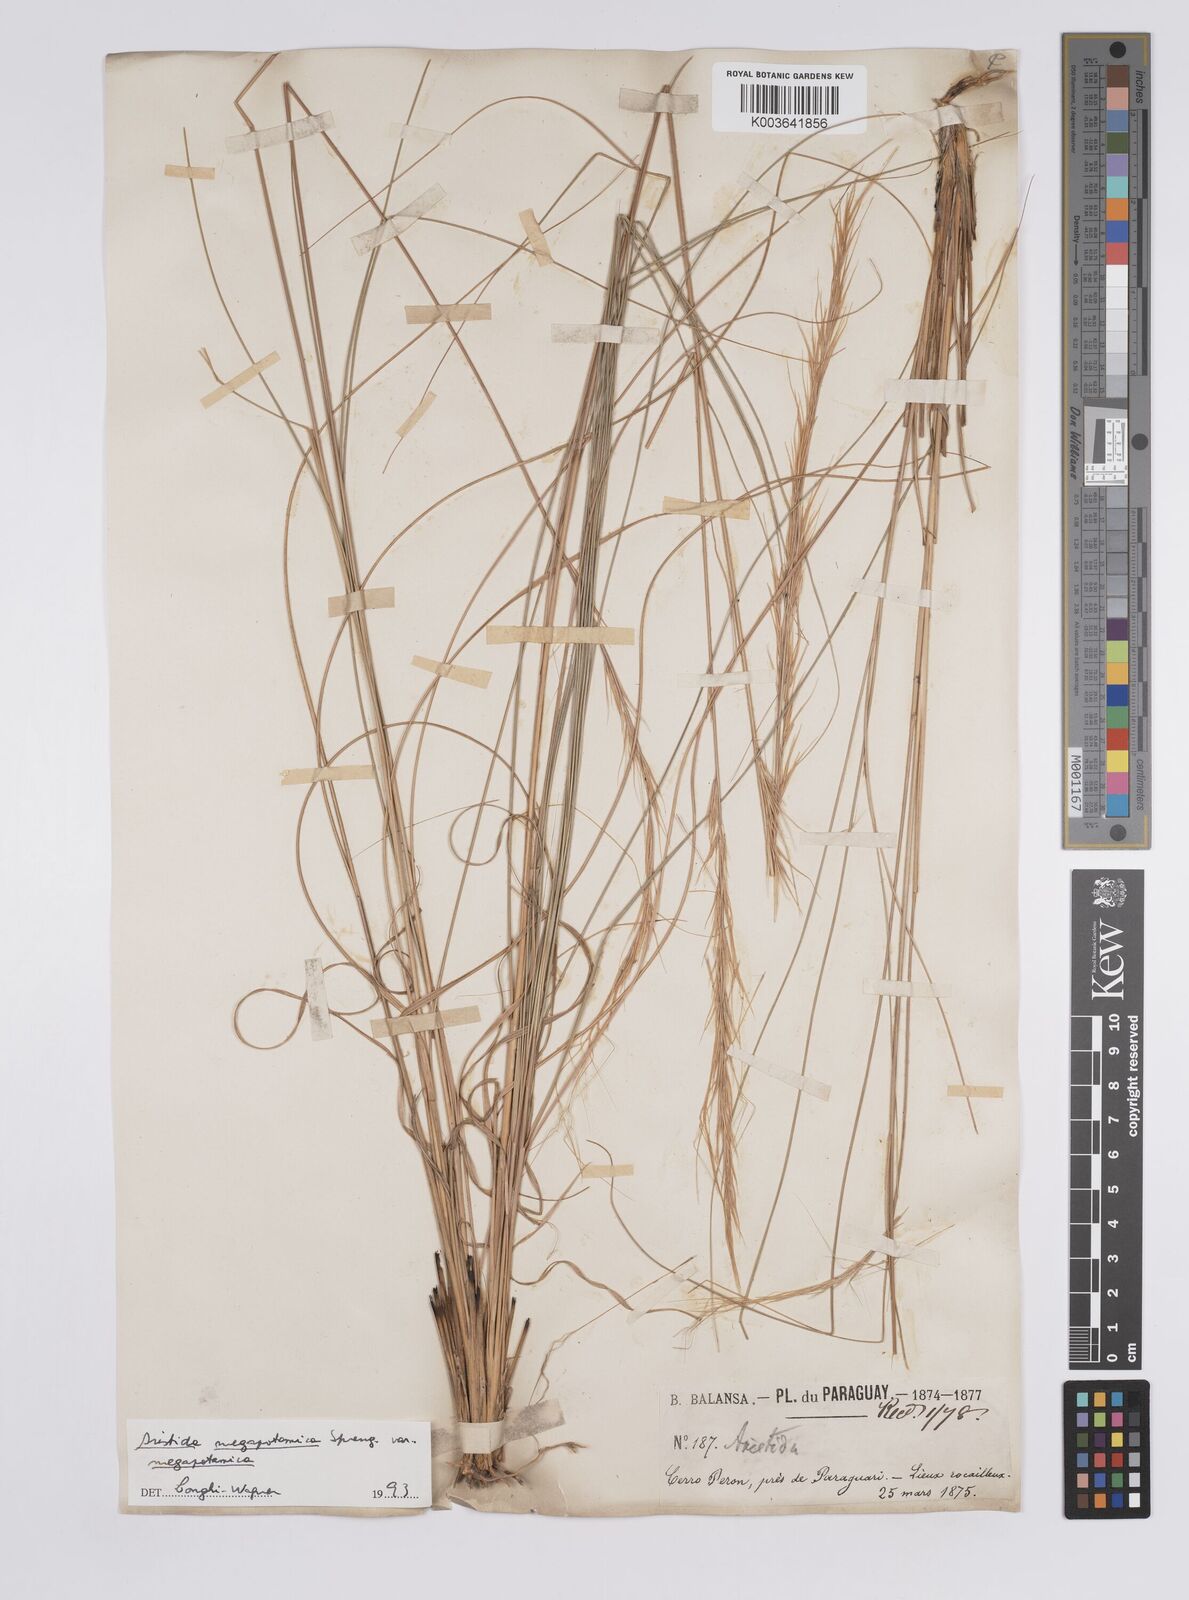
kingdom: Plantae
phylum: Tracheophyta
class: Liliopsida
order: Poales
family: Poaceae
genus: Aristida
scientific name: Aristida megapotamica
